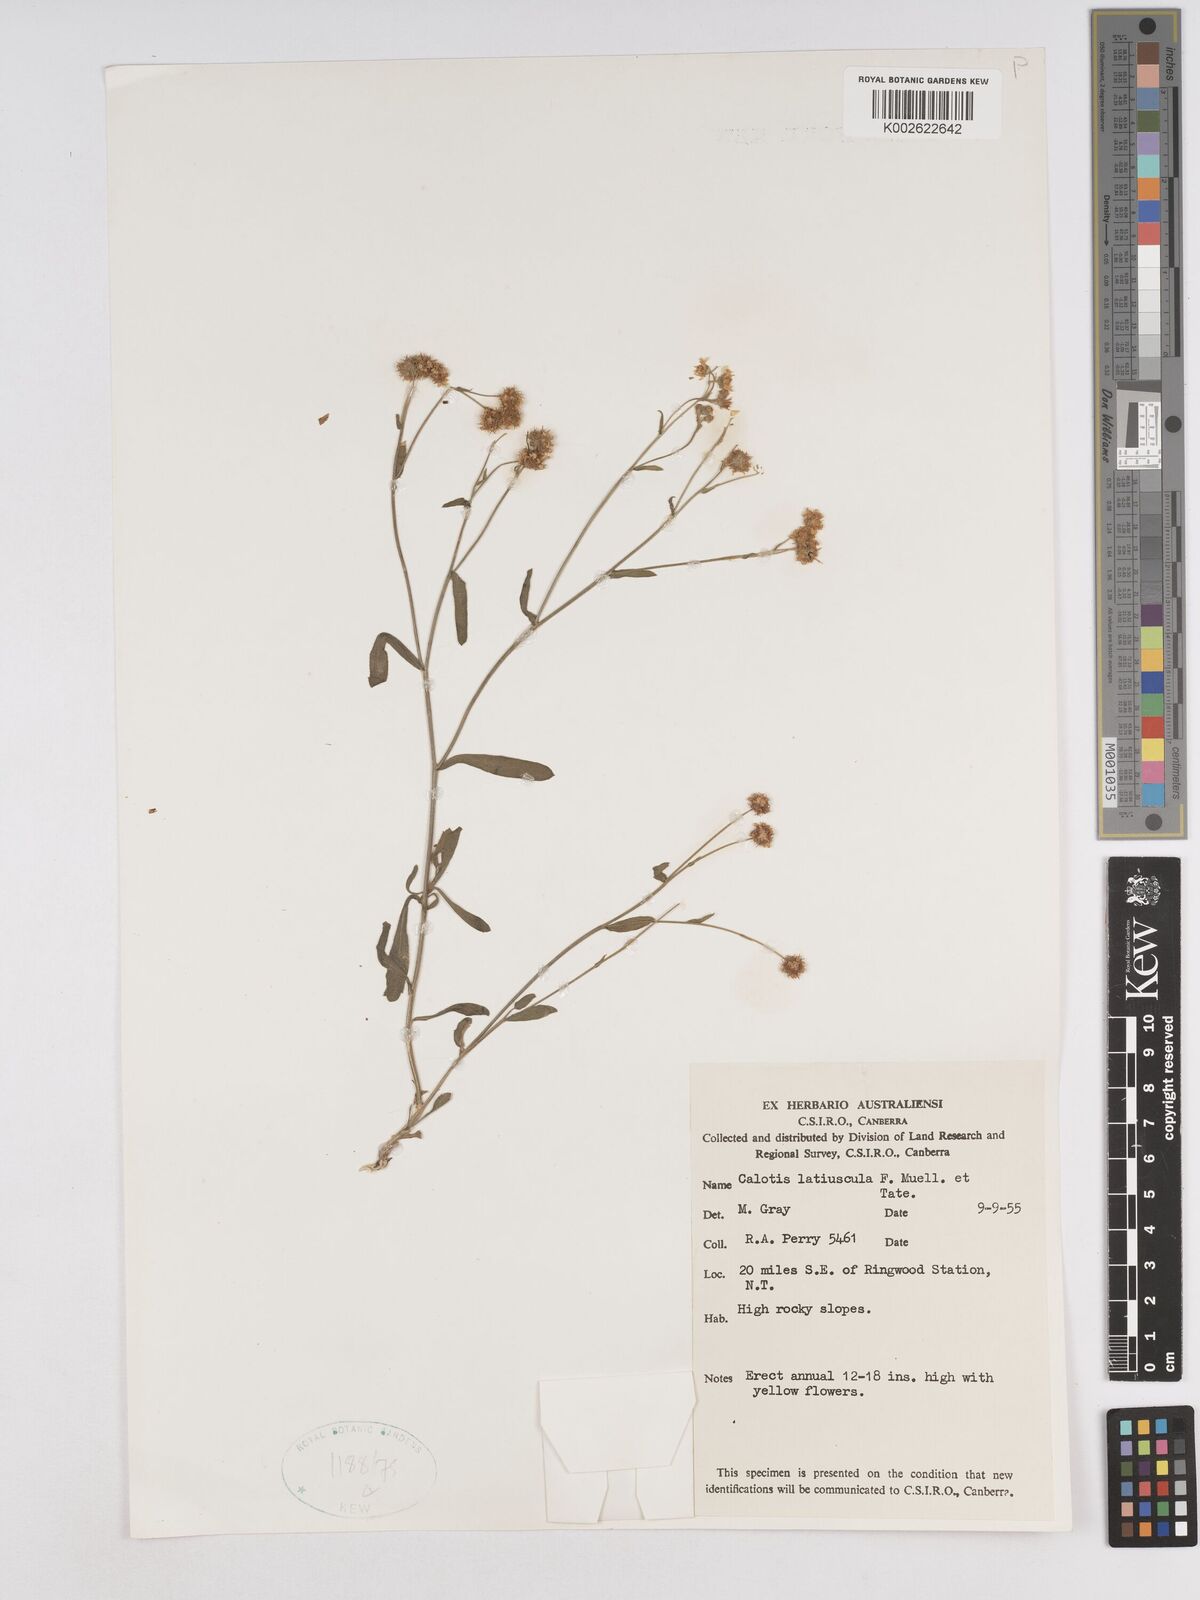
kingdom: Plantae
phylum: Tracheophyta
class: Magnoliopsida
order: Asterales
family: Asteraceae
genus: Calotis
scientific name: Calotis latiuscula
